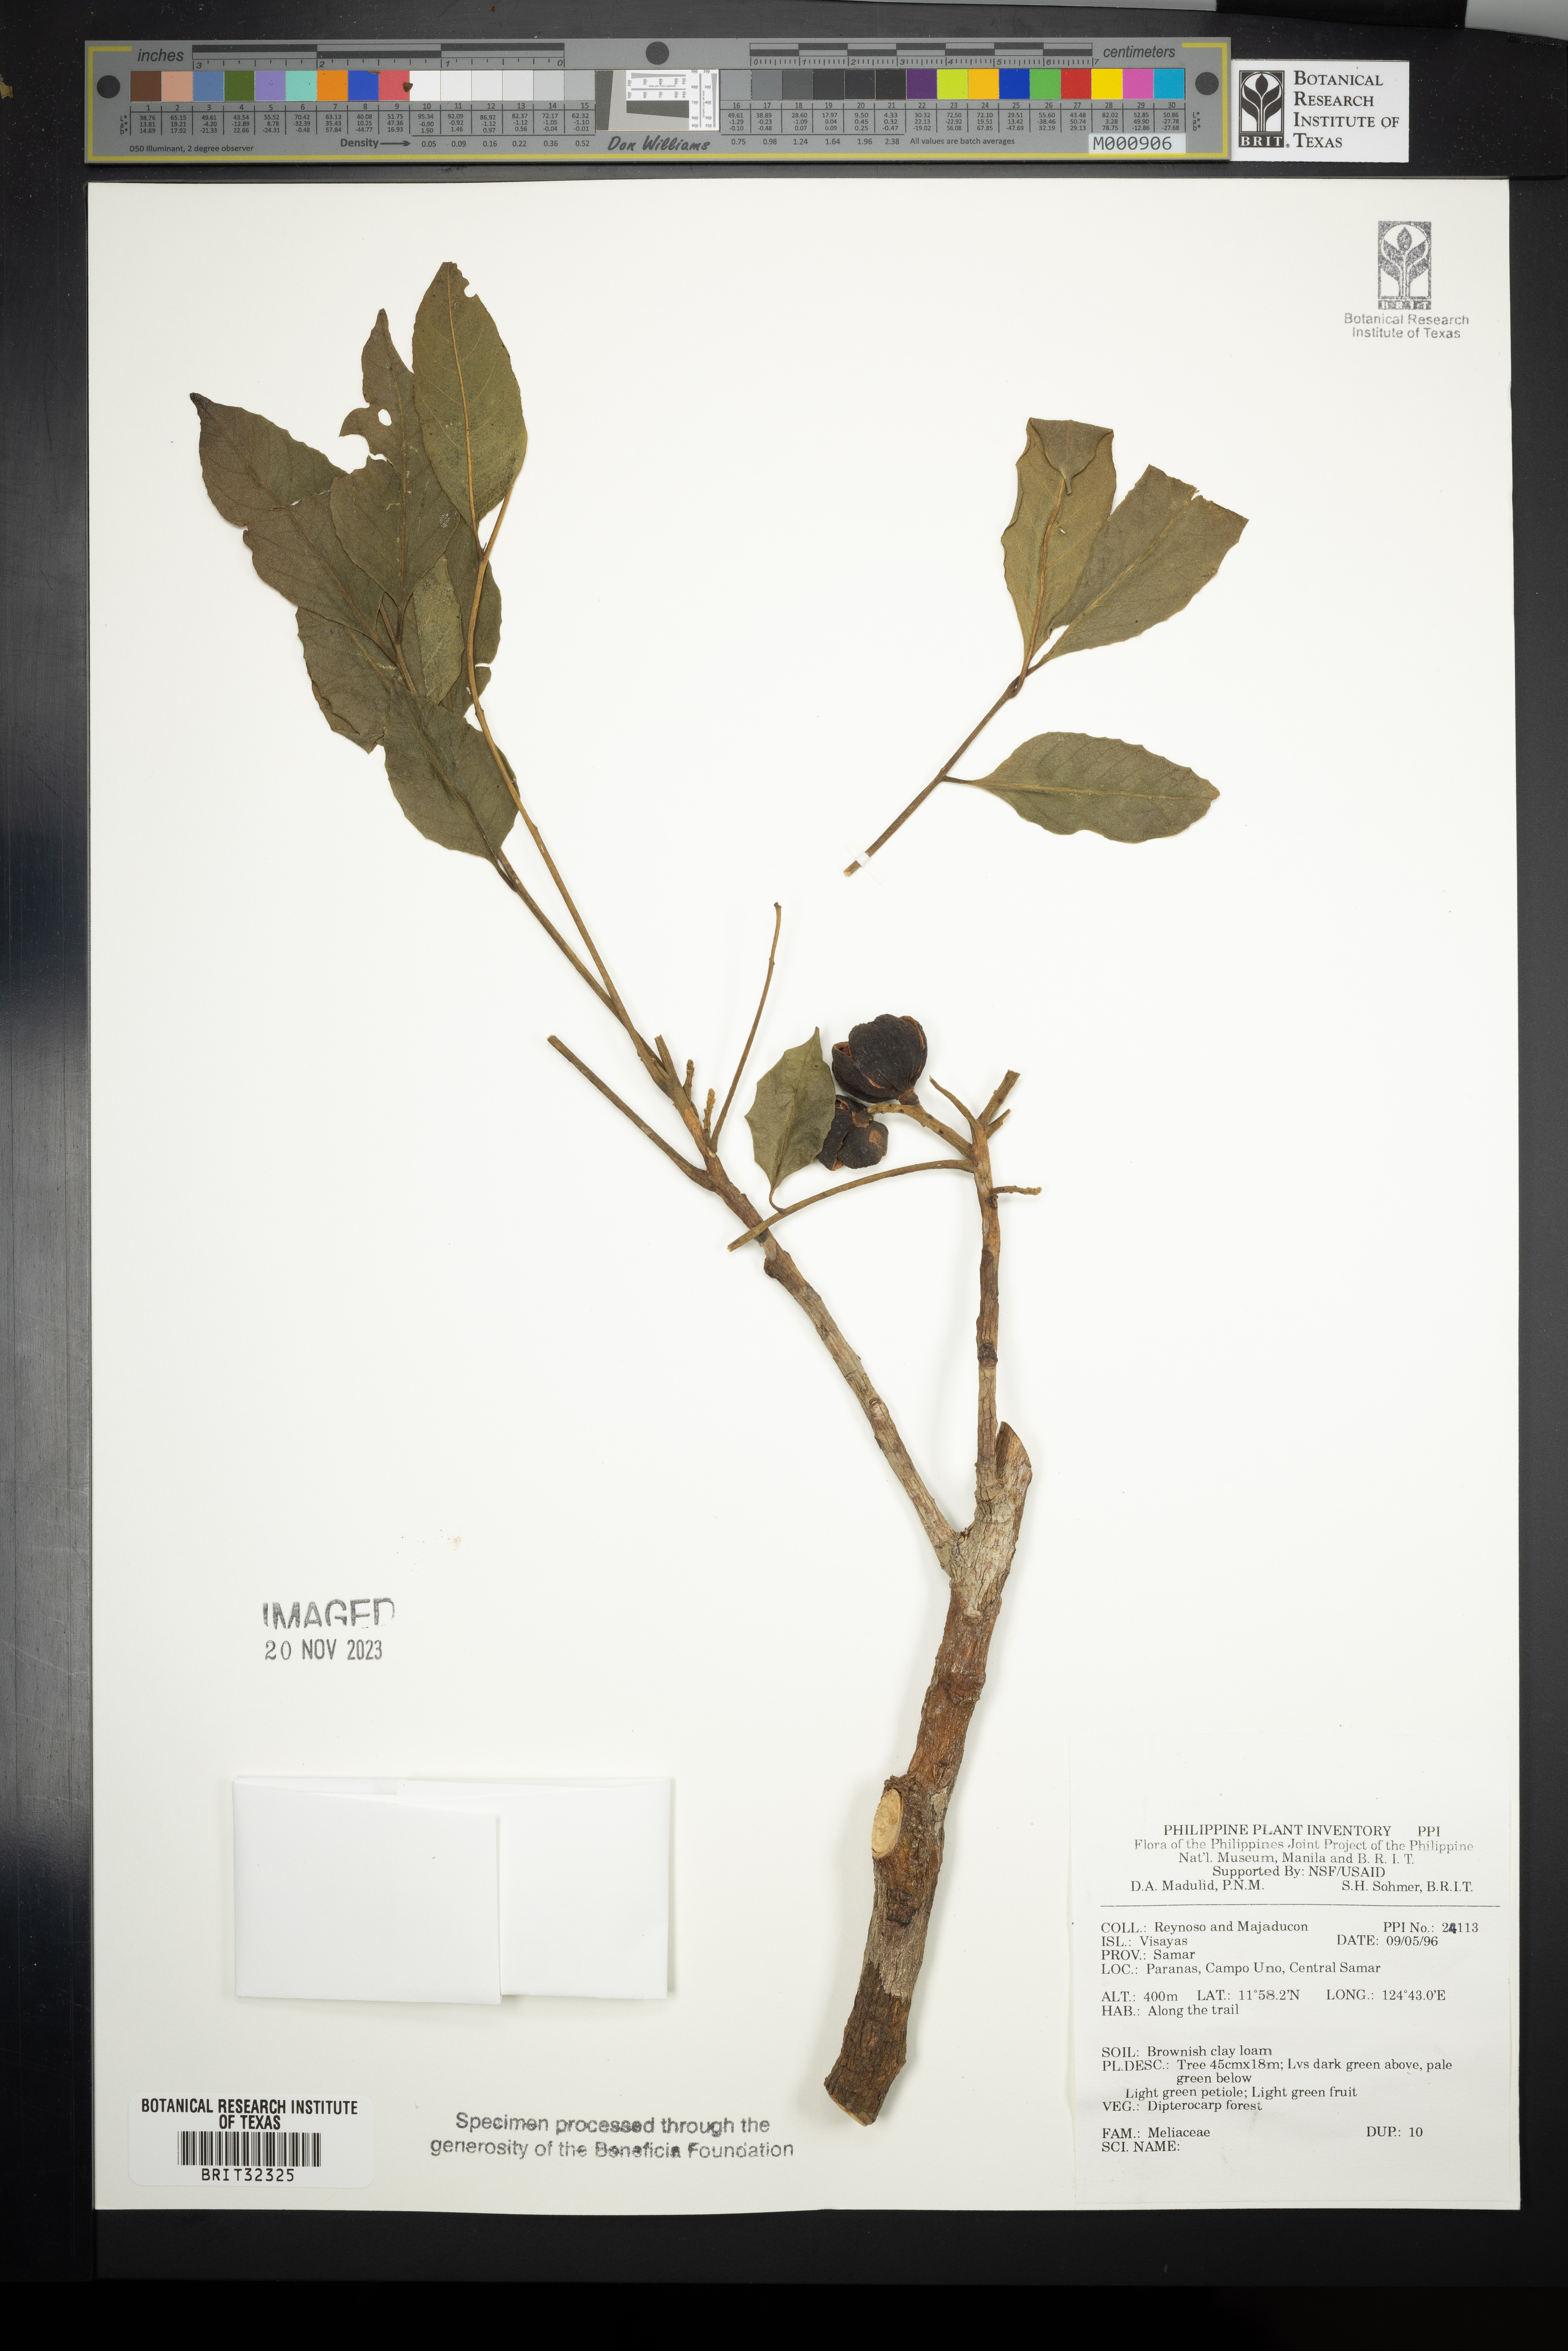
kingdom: Plantae
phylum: Tracheophyta
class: Magnoliopsida
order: Sapindales
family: Meliaceae
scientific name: Meliaceae
